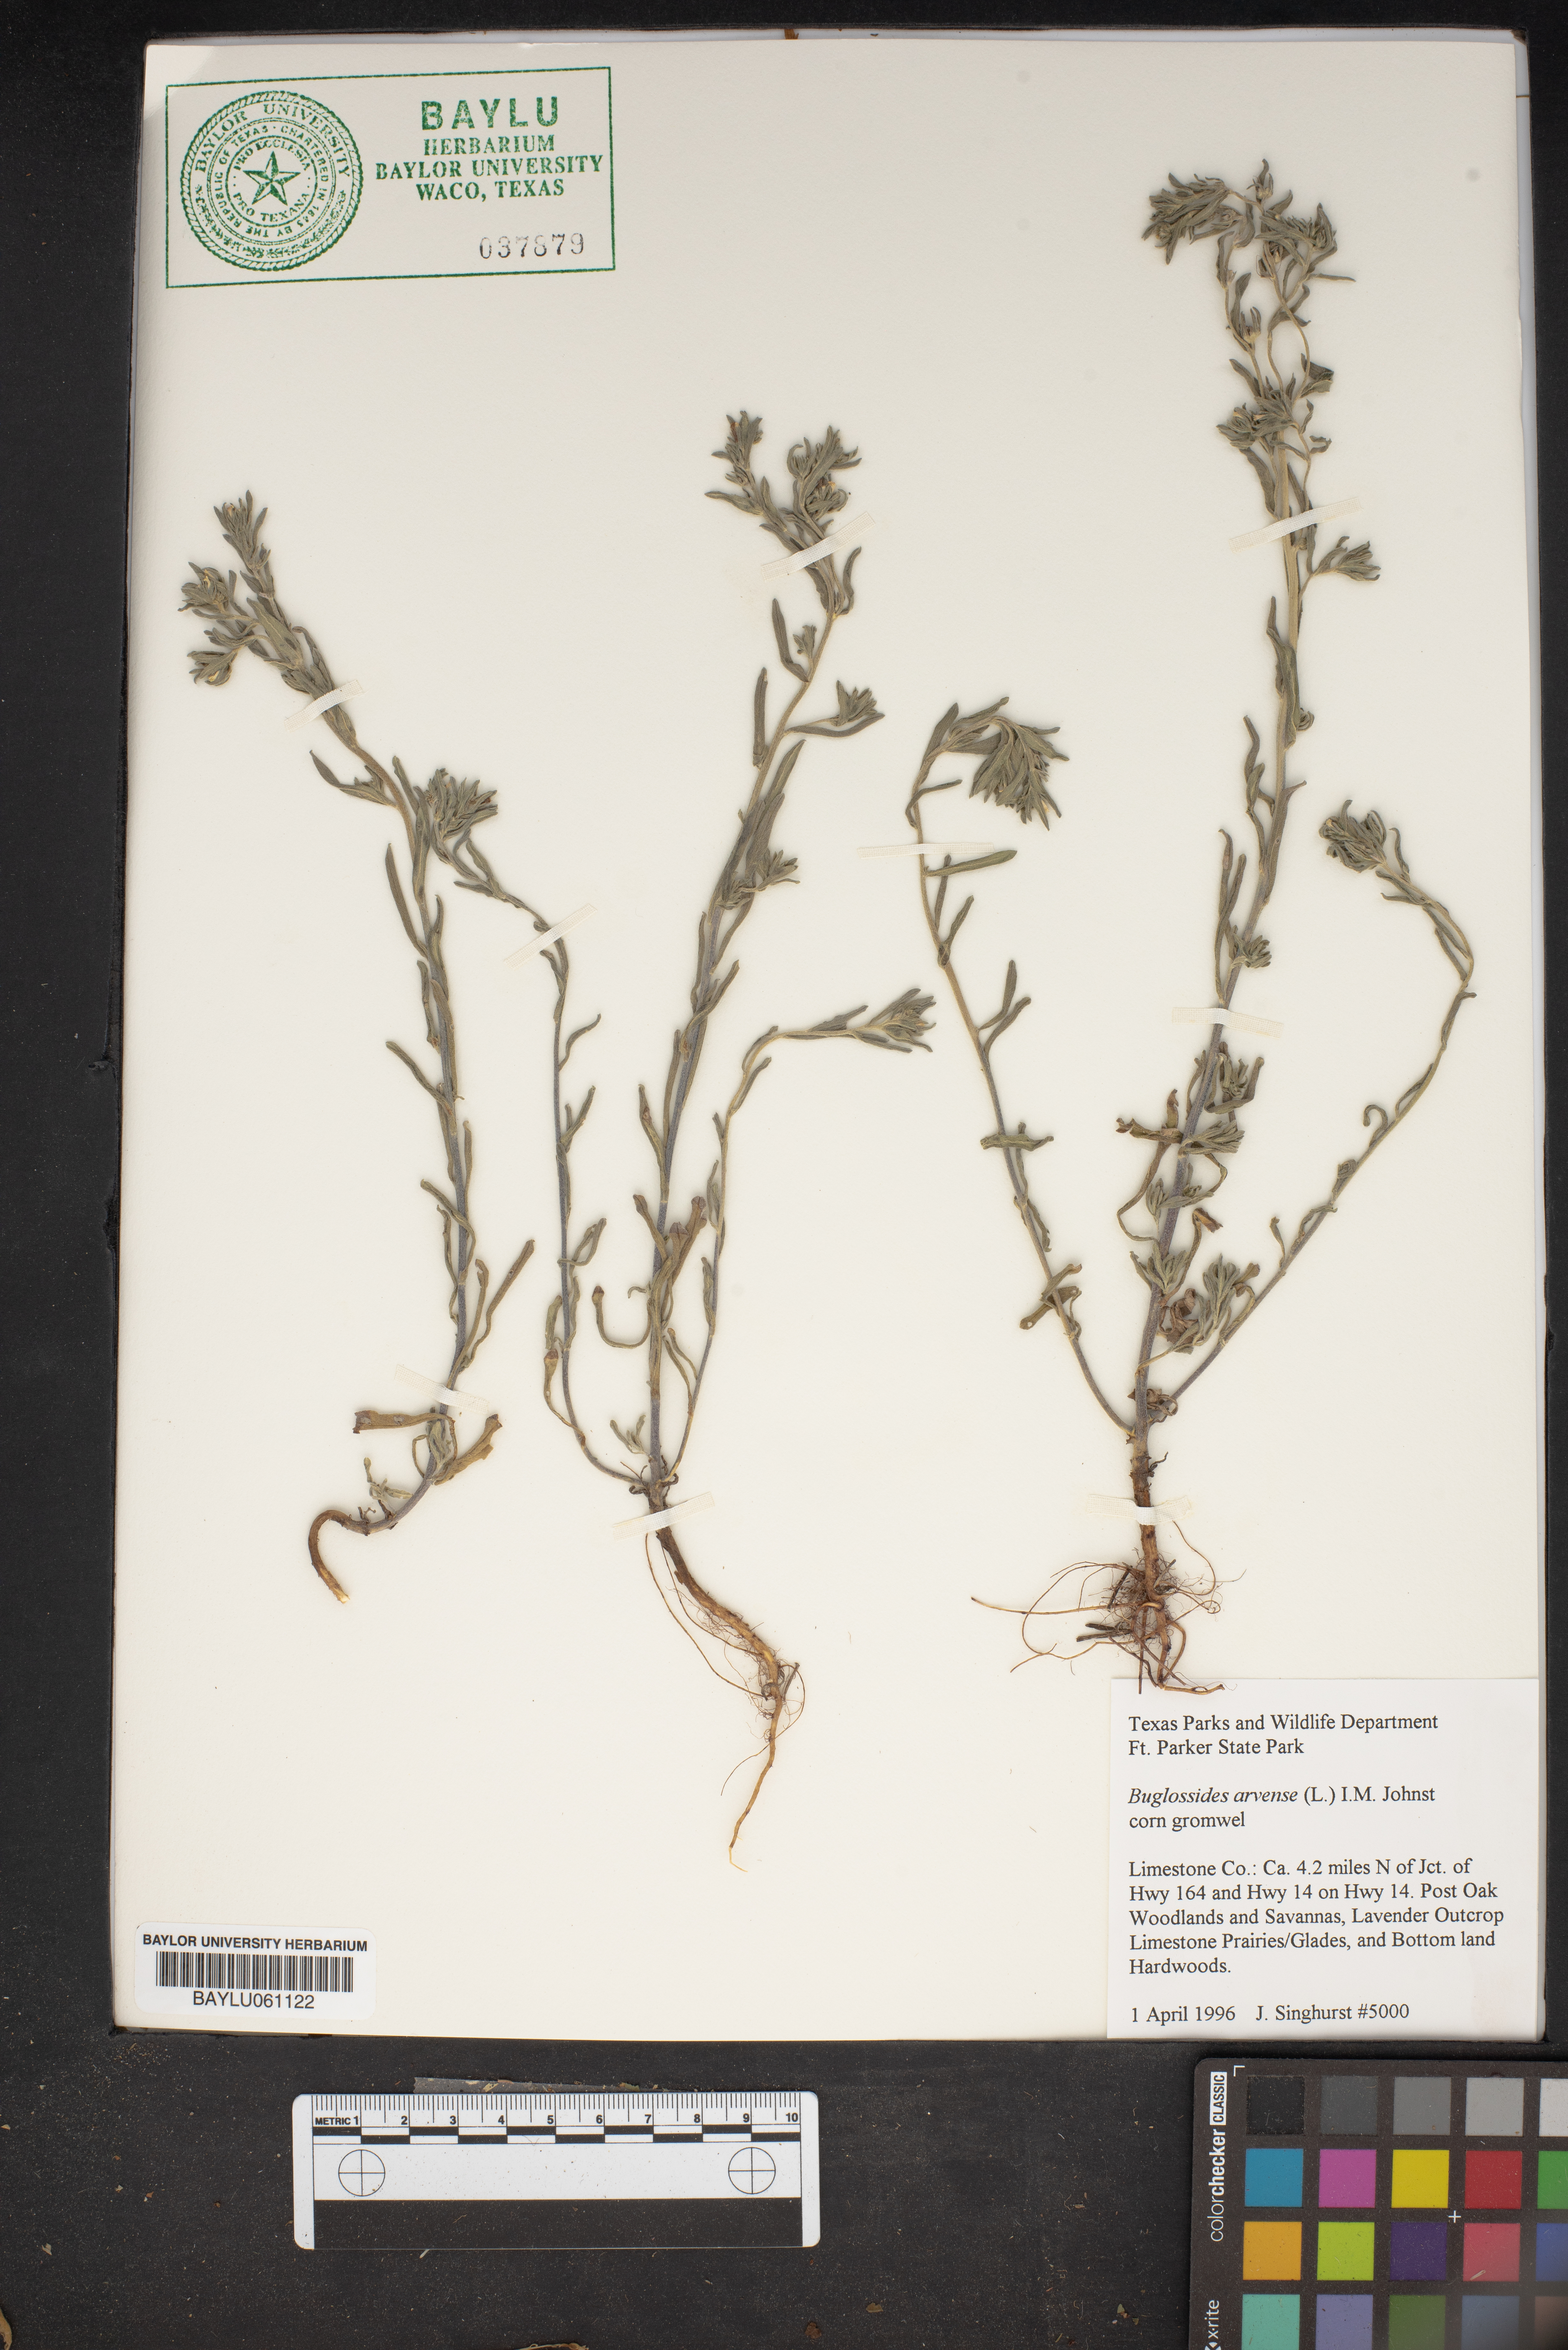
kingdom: Plantae
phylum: Tracheophyta
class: Magnoliopsida
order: Boraginales
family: Boraginaceae
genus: Buglossoides
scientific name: Buglossoides arvensis
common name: Corn gromwell
